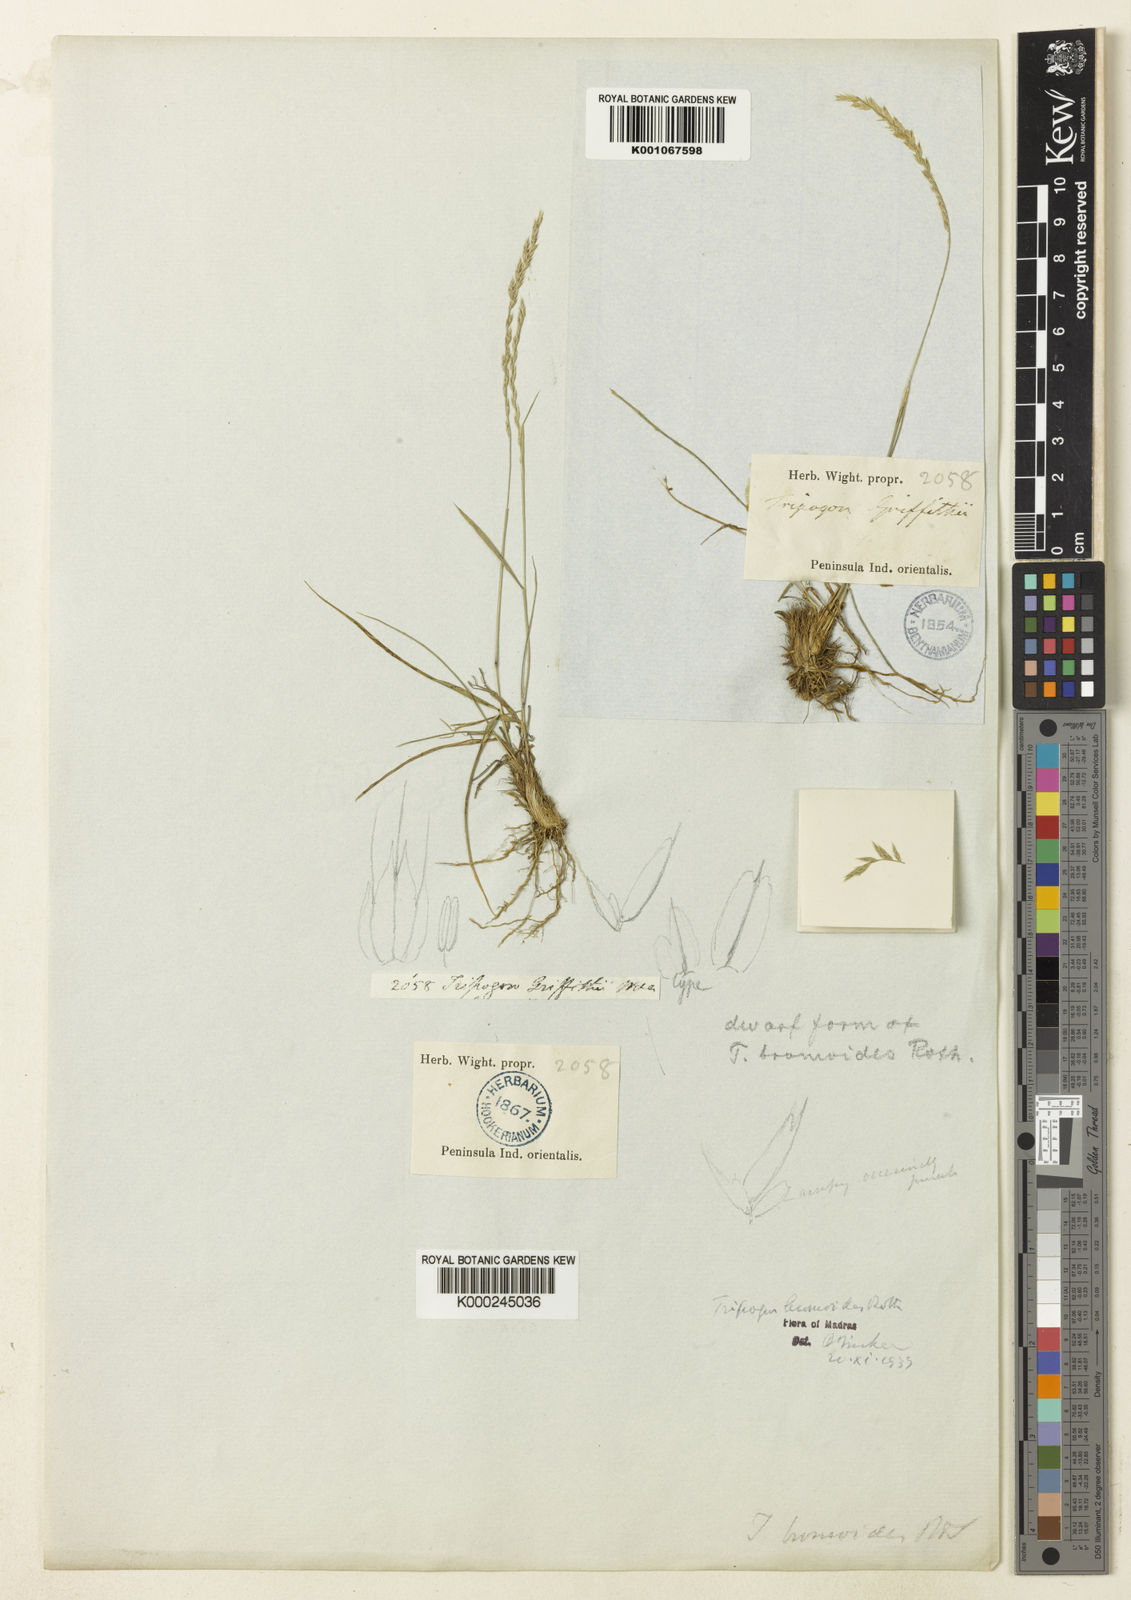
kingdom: Plantae
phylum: Tracheophyta
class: Liliopsida
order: Poales
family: Poaceae
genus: Tripogon
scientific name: Tripogon
